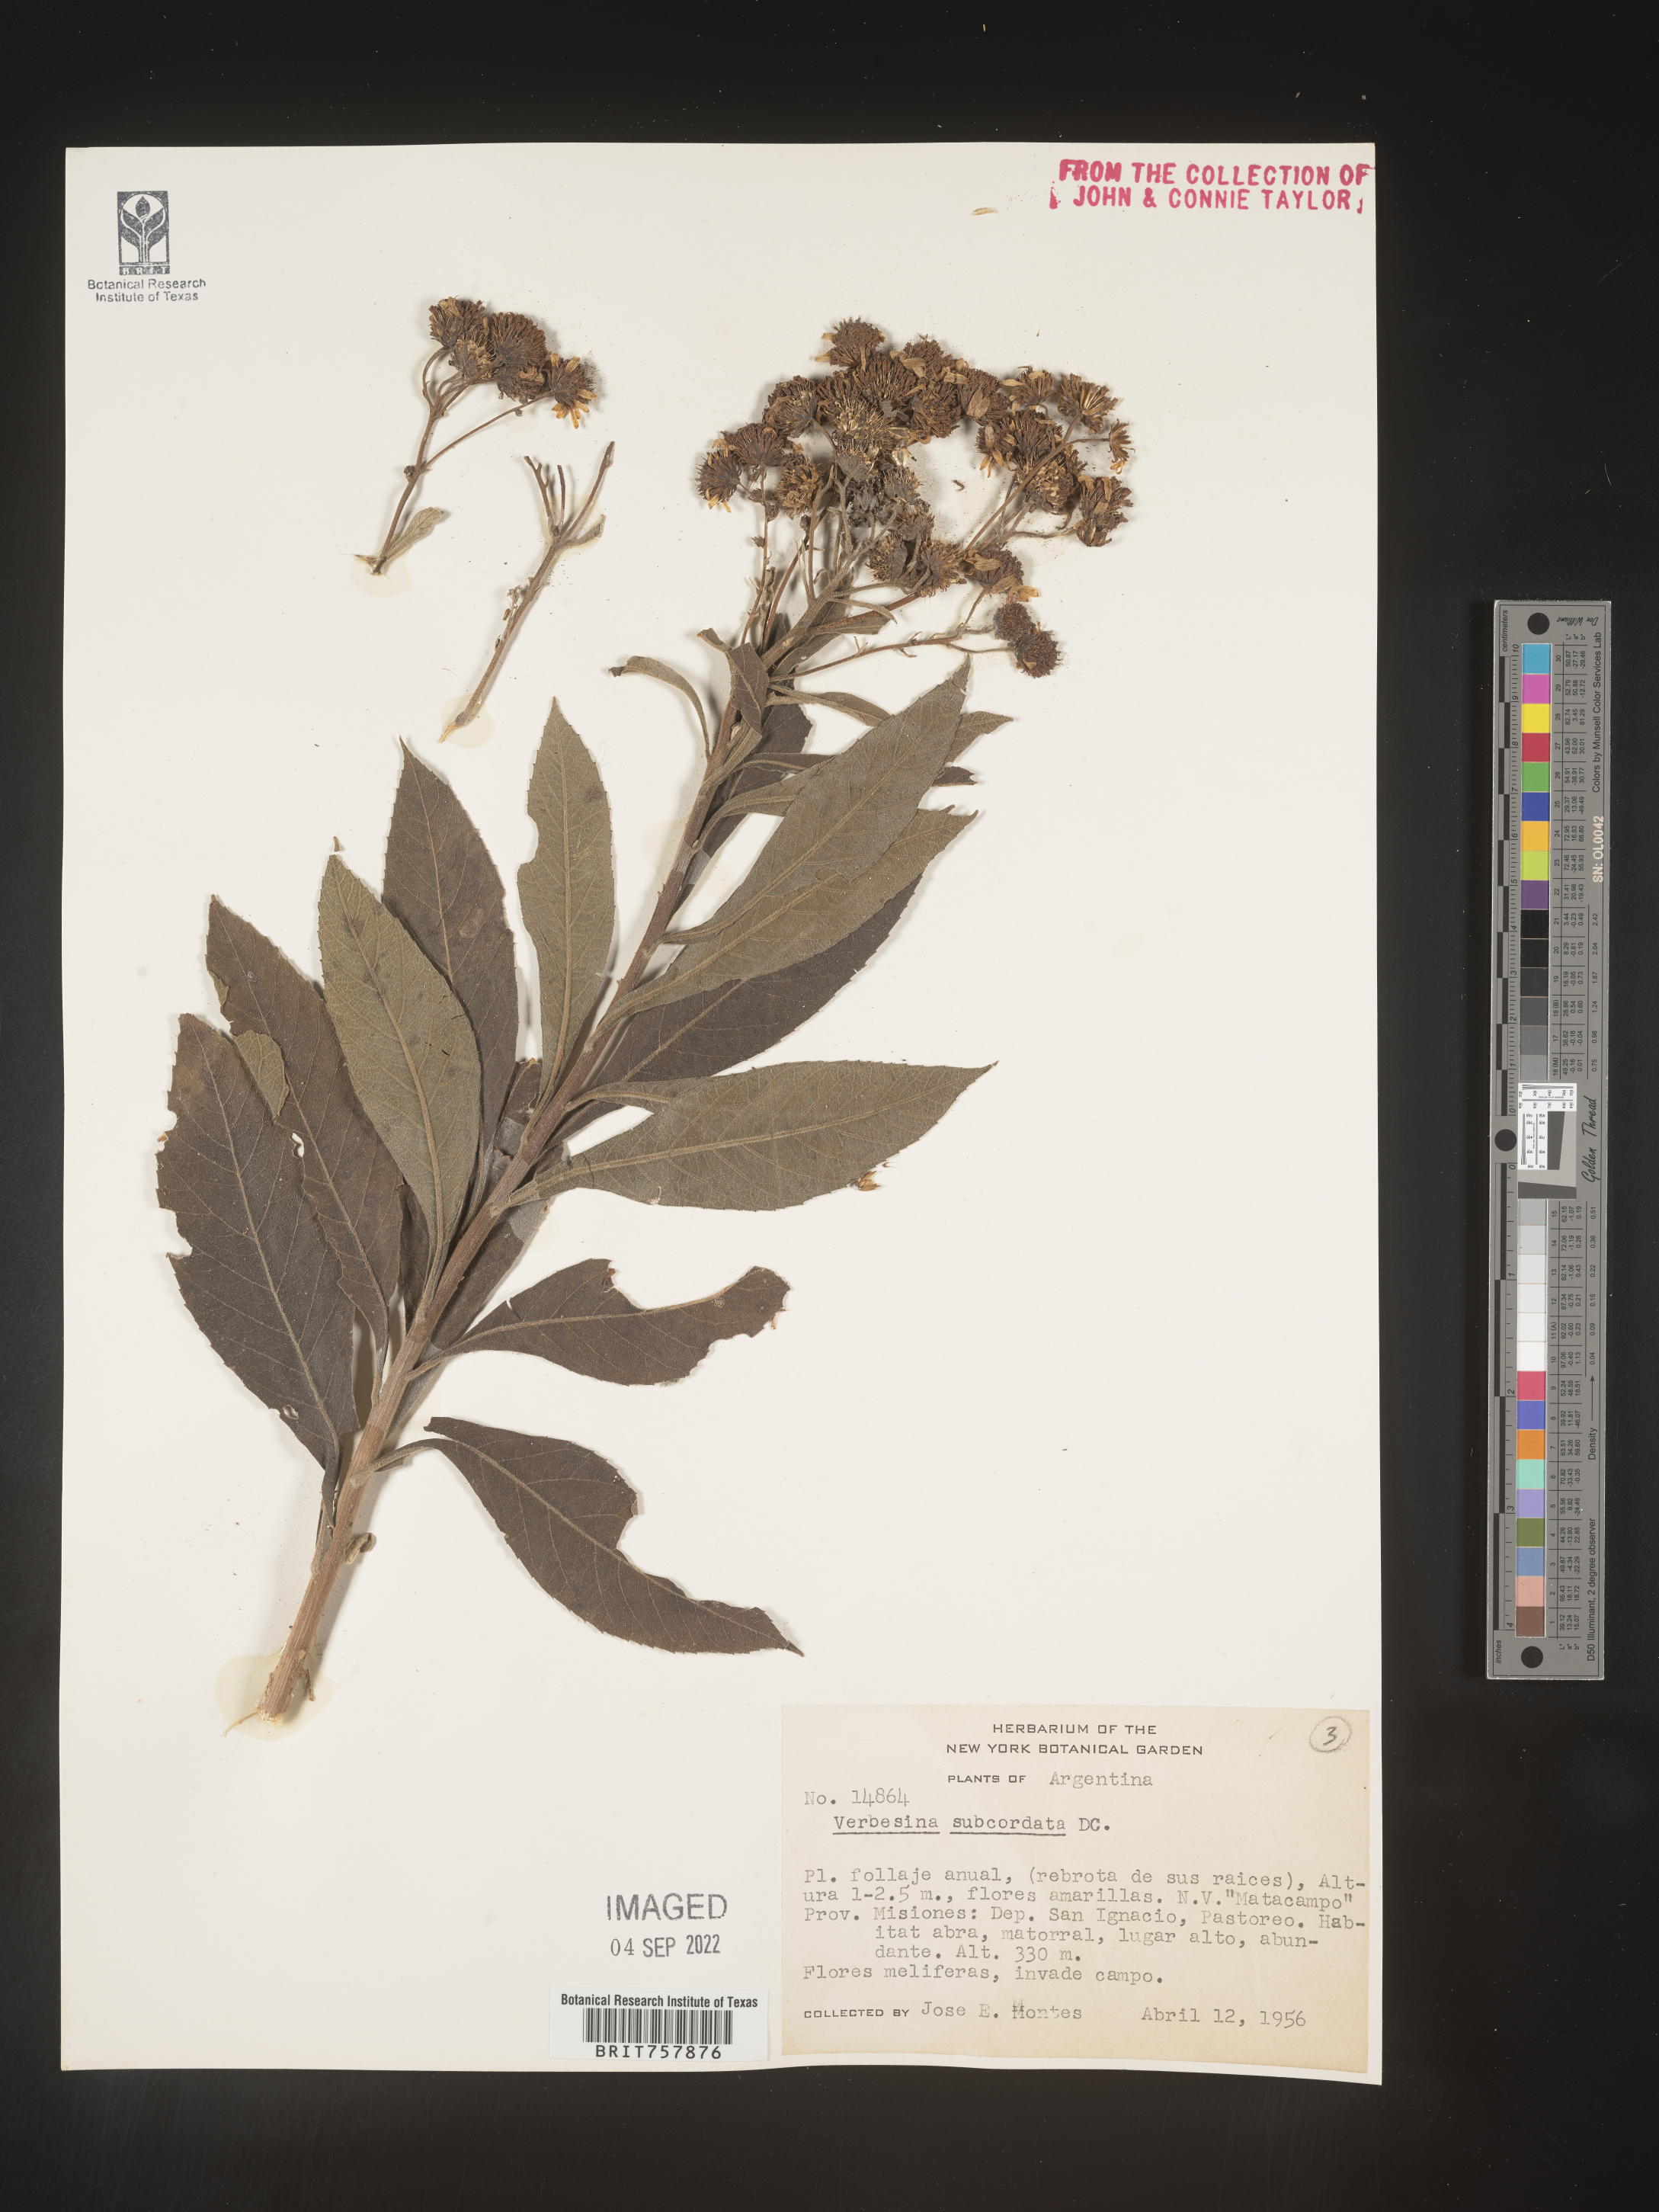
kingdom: Plantae
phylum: Tracheophyta
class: Magnoliopsida
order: Asterales
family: Asteraceae
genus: Verbesina
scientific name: Verbesina
